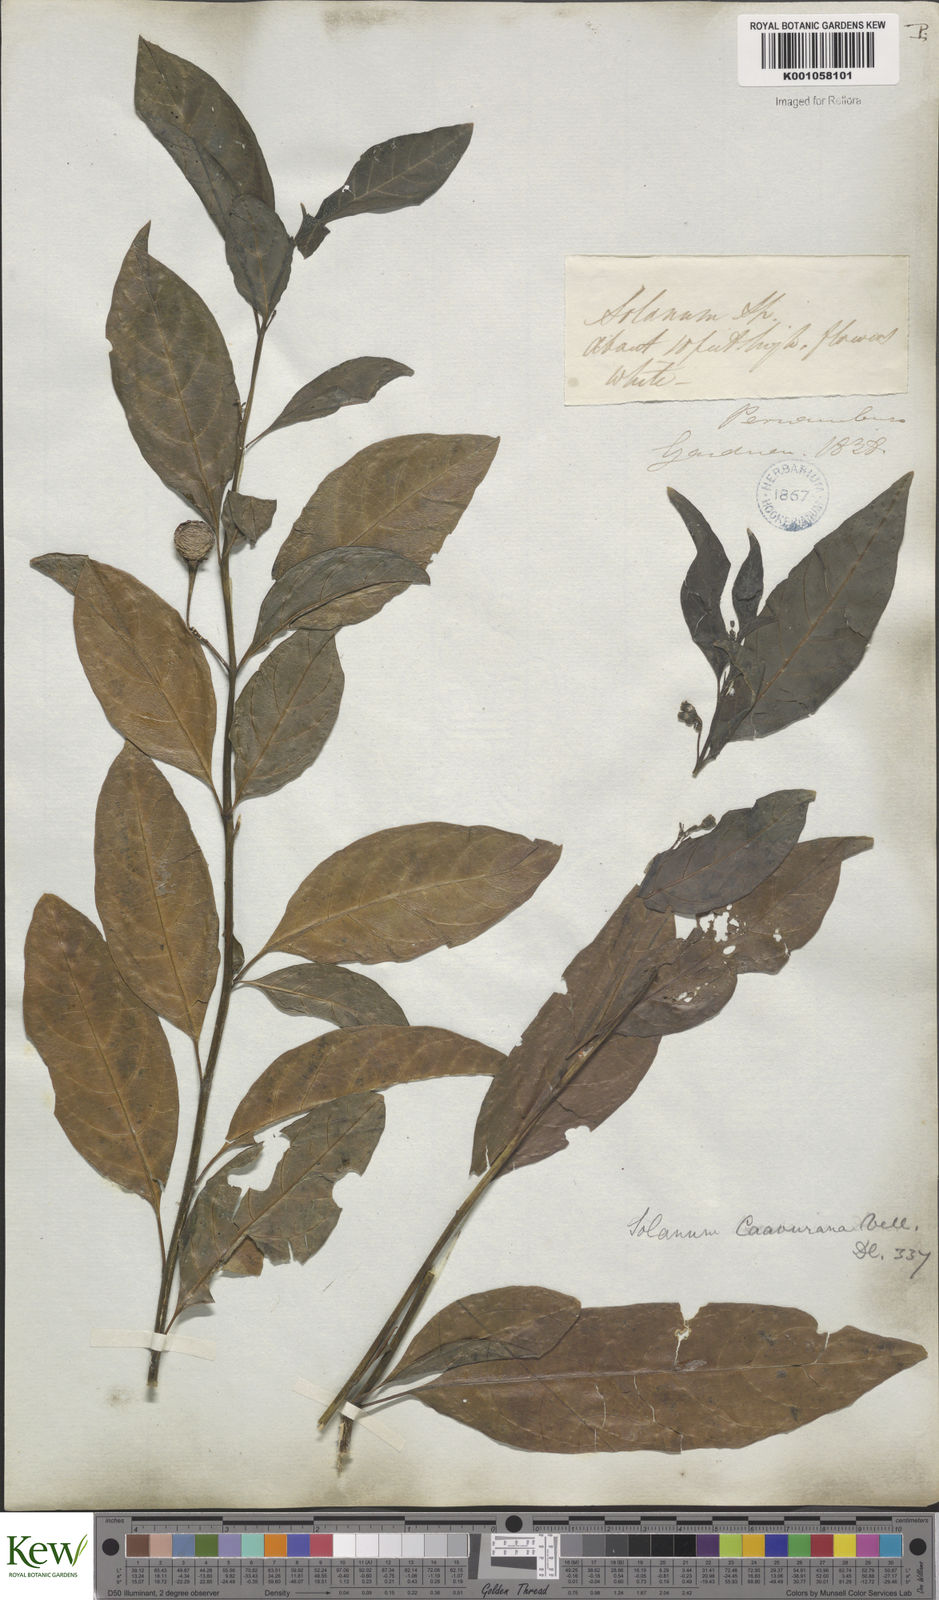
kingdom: Plantae
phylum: Tracheophyta
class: Magnoliopsida
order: Solanales
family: Solanaceae
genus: Solanum
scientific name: Solanum caavurana
